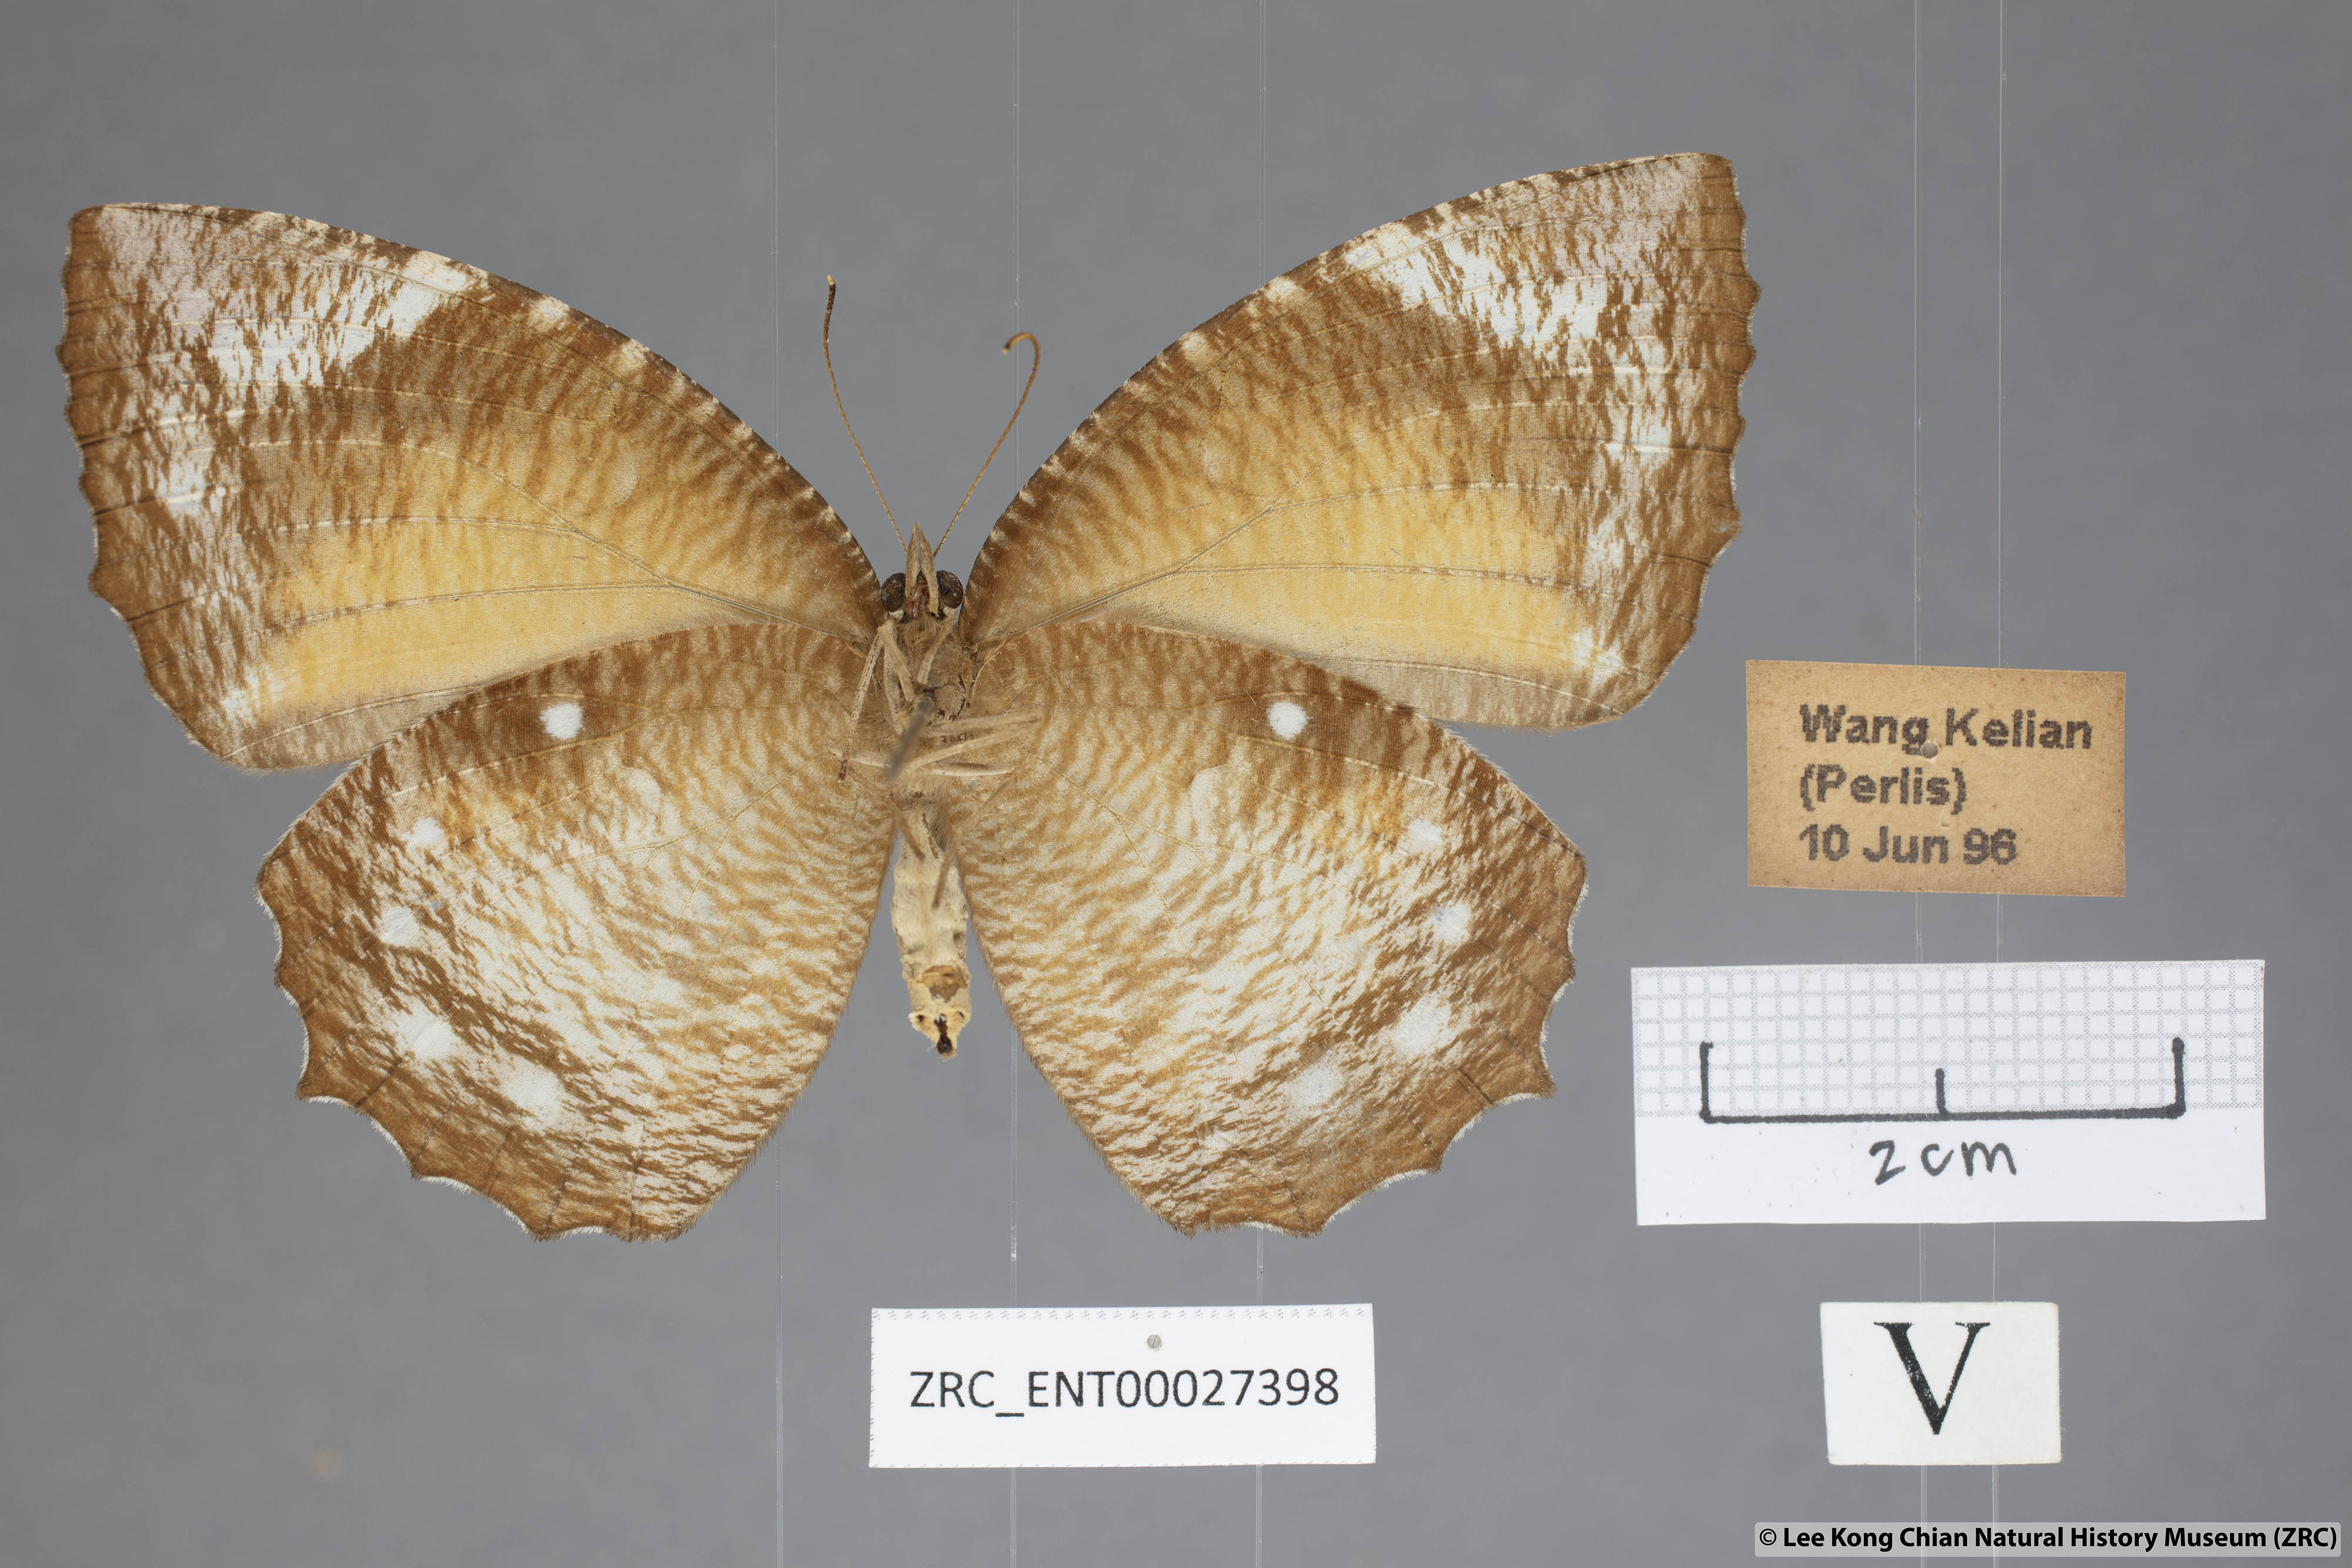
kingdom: Animalia
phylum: Arthropoda
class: Insecta
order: Lepidoptera
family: Nymphalidae
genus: Elymnias
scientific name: Elymnias hypermnestra
